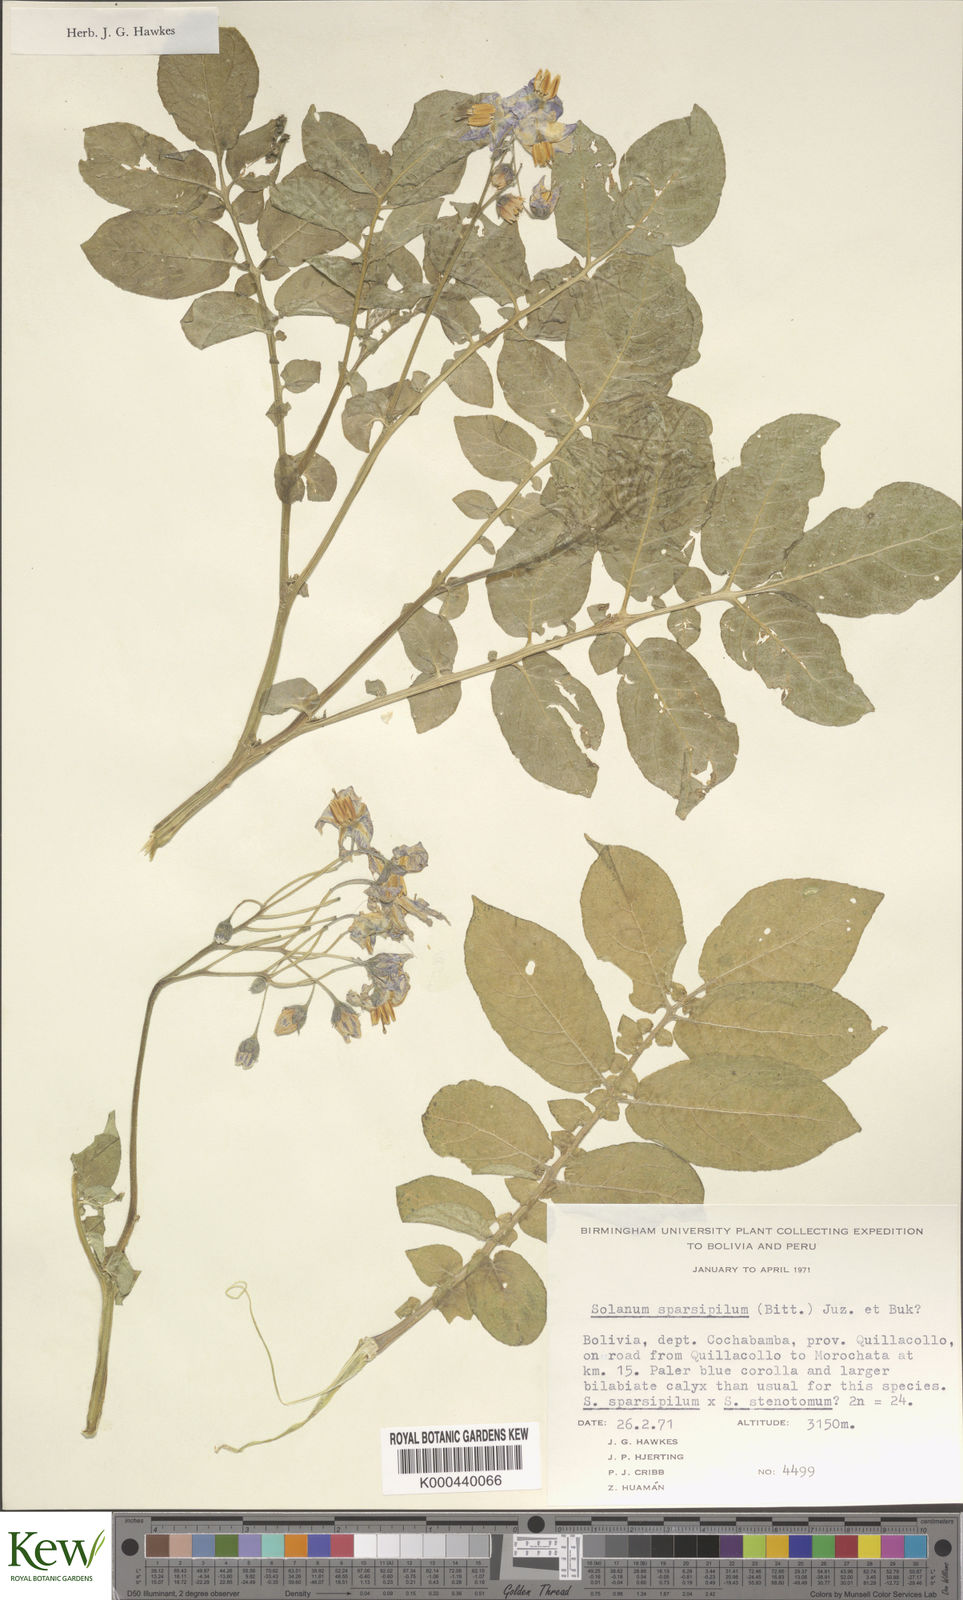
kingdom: Plantae
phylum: Tracheophyta
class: Magnoliopsida
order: Solanales
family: Solanaceae
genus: Solanum
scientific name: Solanum brevicaule
